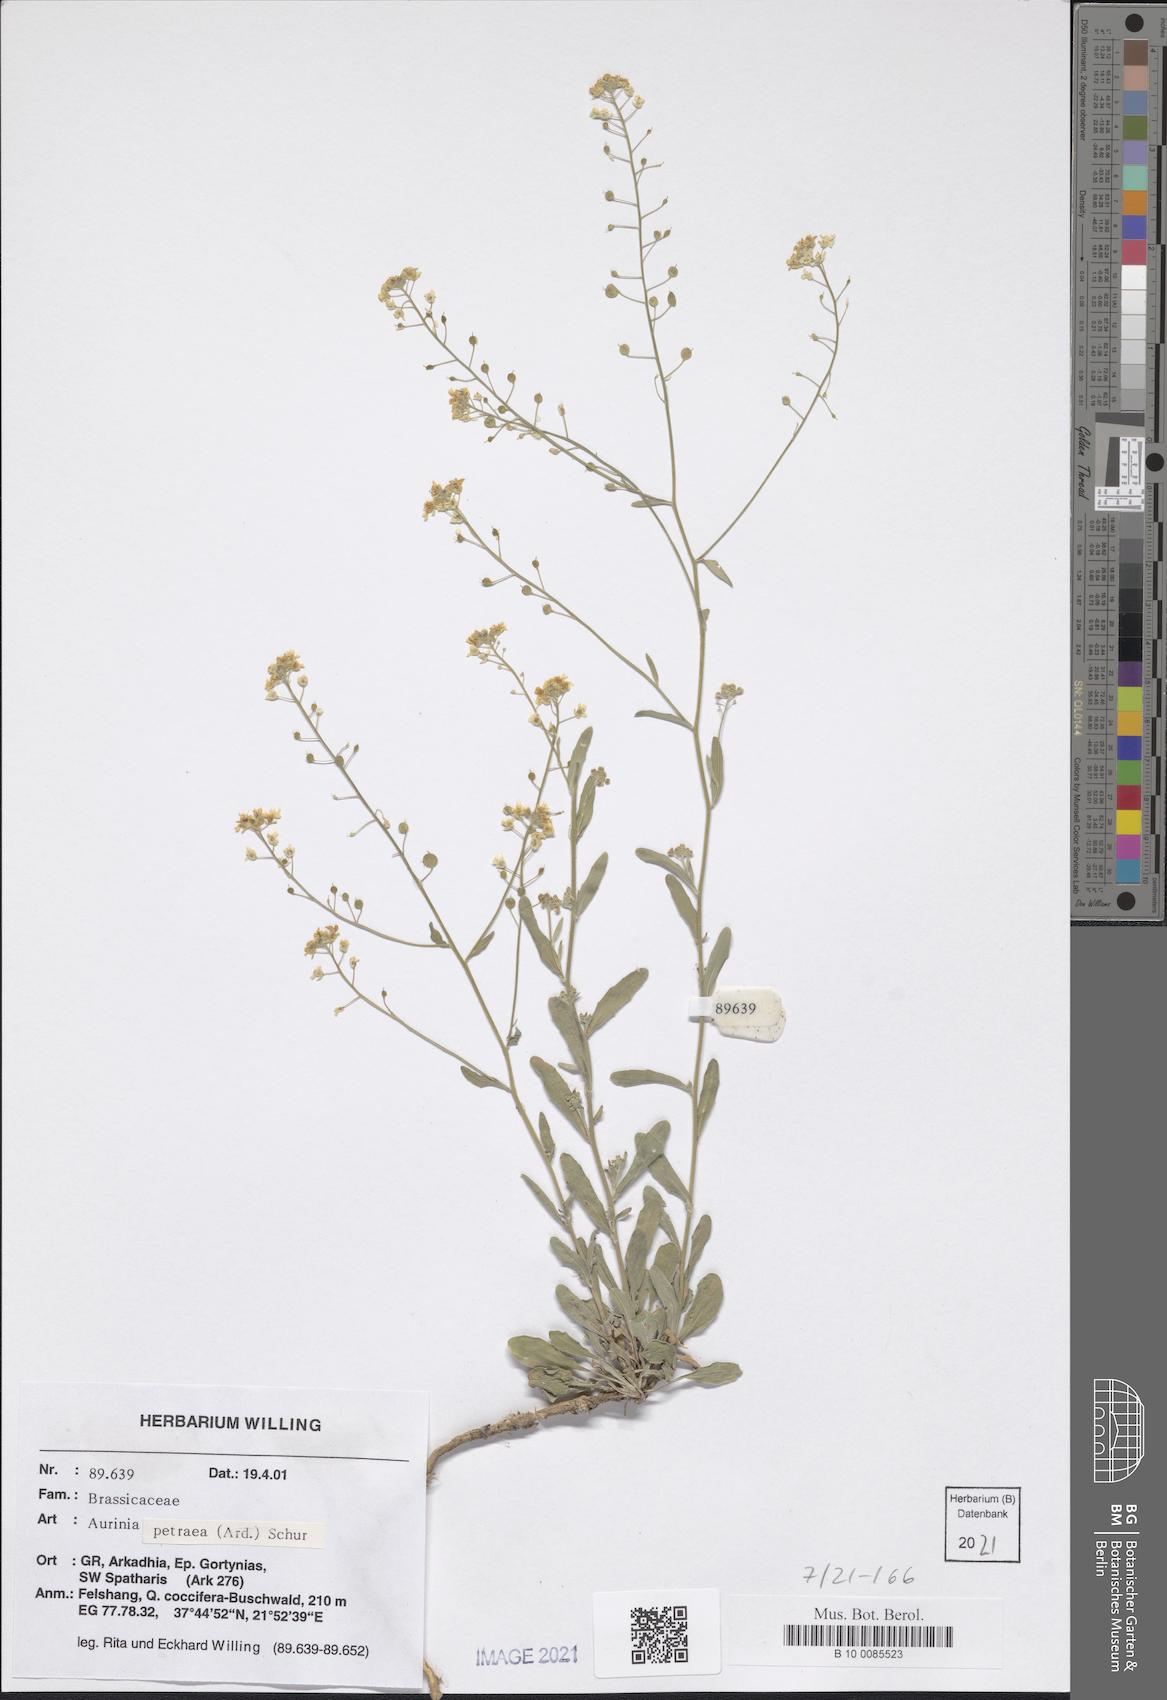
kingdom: Plantae
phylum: Tracheophyta
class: Magnoliopsida
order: Brassicales
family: Brassicaceae
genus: Aurinia
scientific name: Aurinia petraea
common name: Goldentuft
